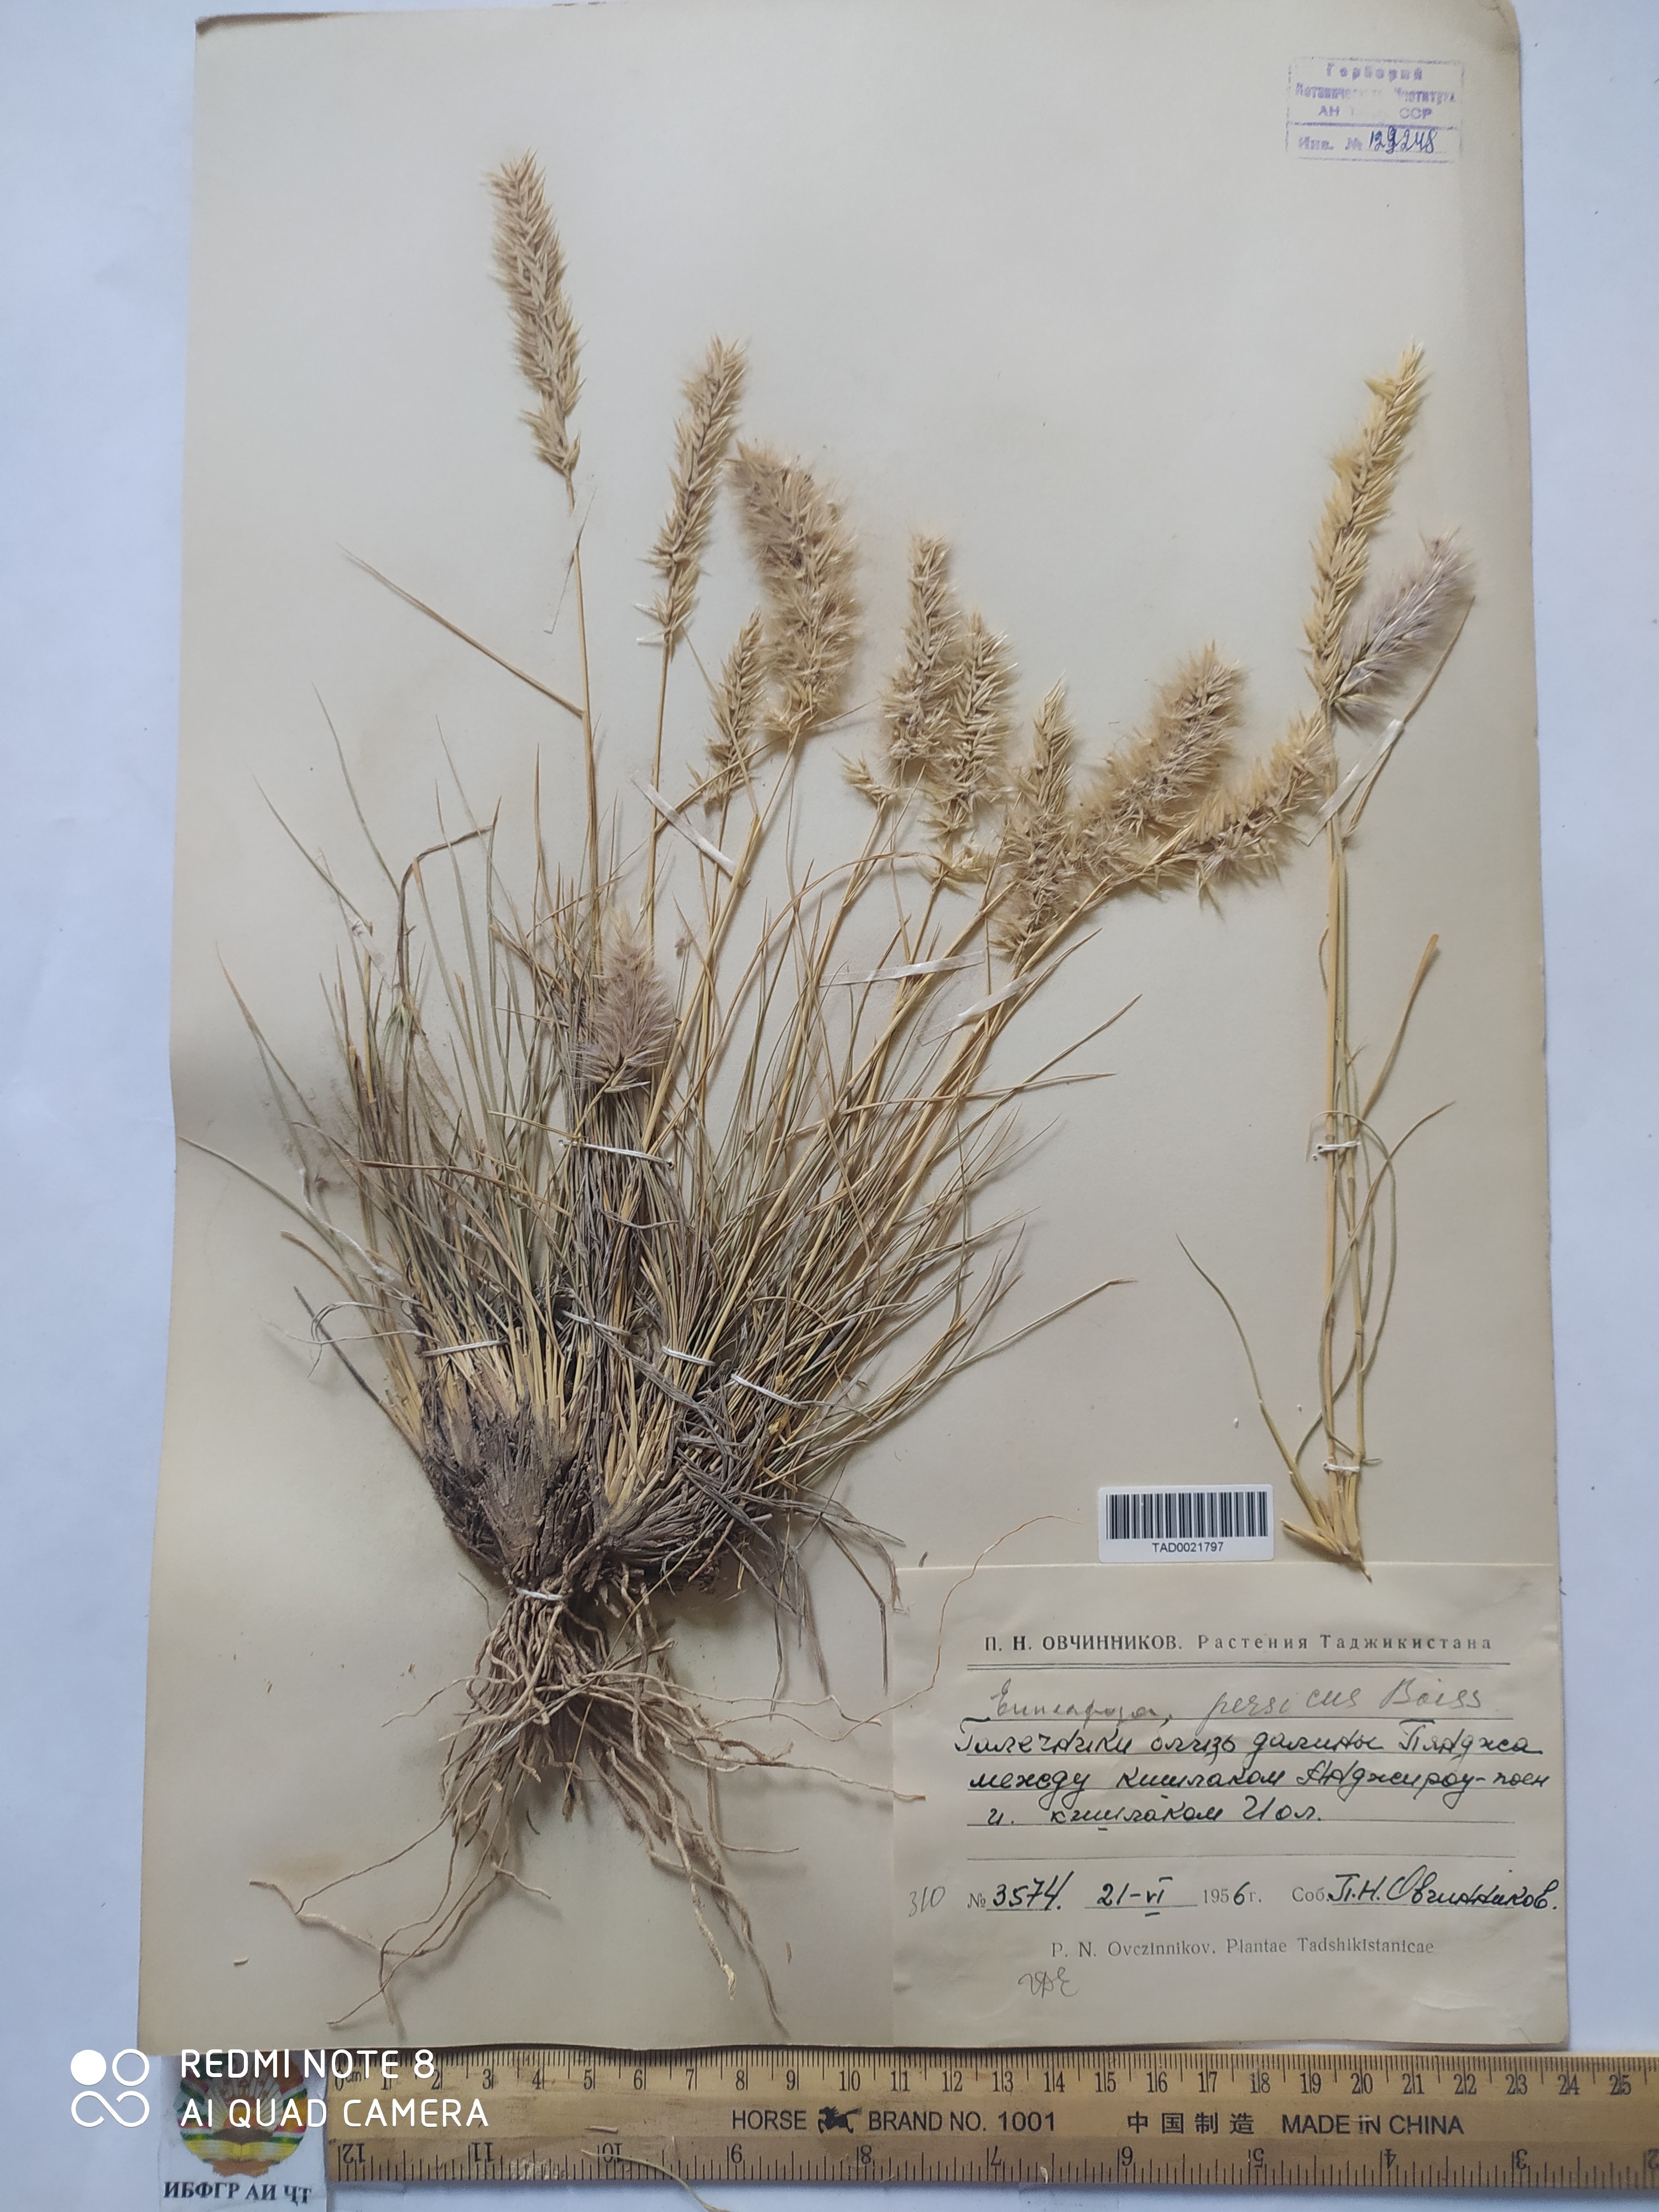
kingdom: Plantae
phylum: Tracheophyta
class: Liliopsida
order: Poales
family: Poaceae
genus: Enneapogon
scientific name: Enneapogon persicus
